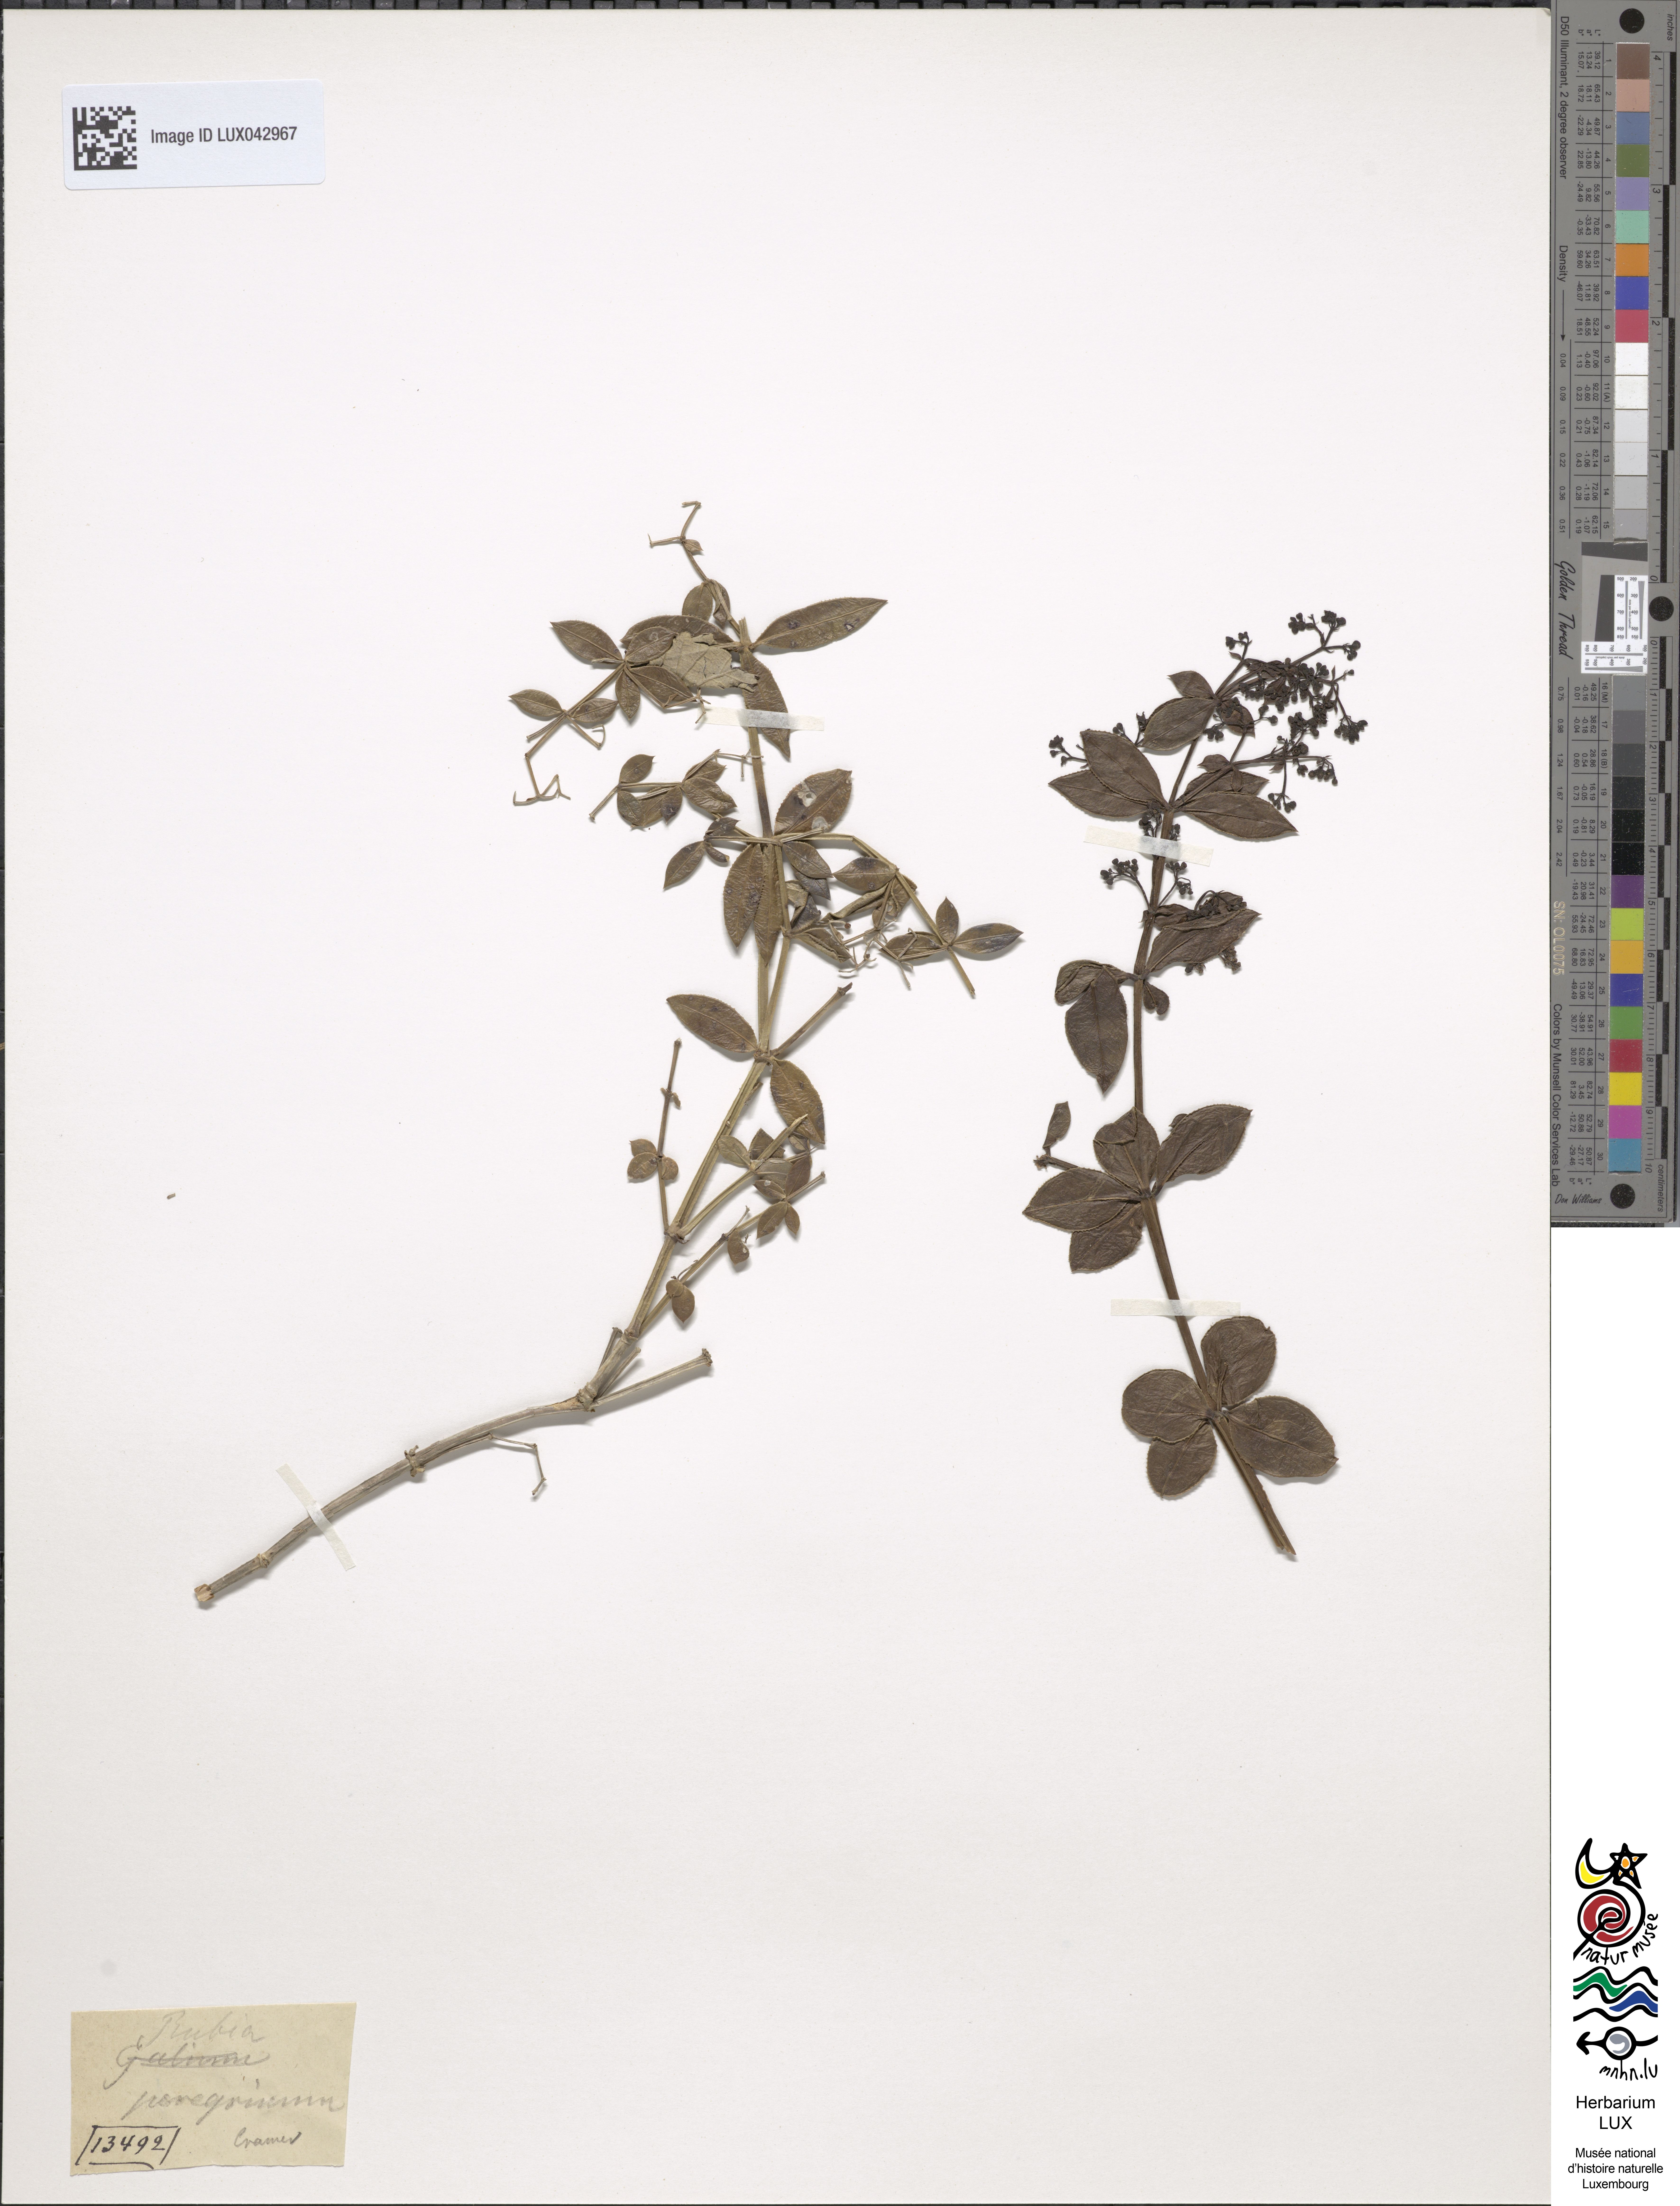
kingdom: Plantae
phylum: Tracheophyta
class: Magnoliopsida
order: Gentianales
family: Rubiaceae
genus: Rubia
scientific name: Rubia peregrina
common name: Wild madder
